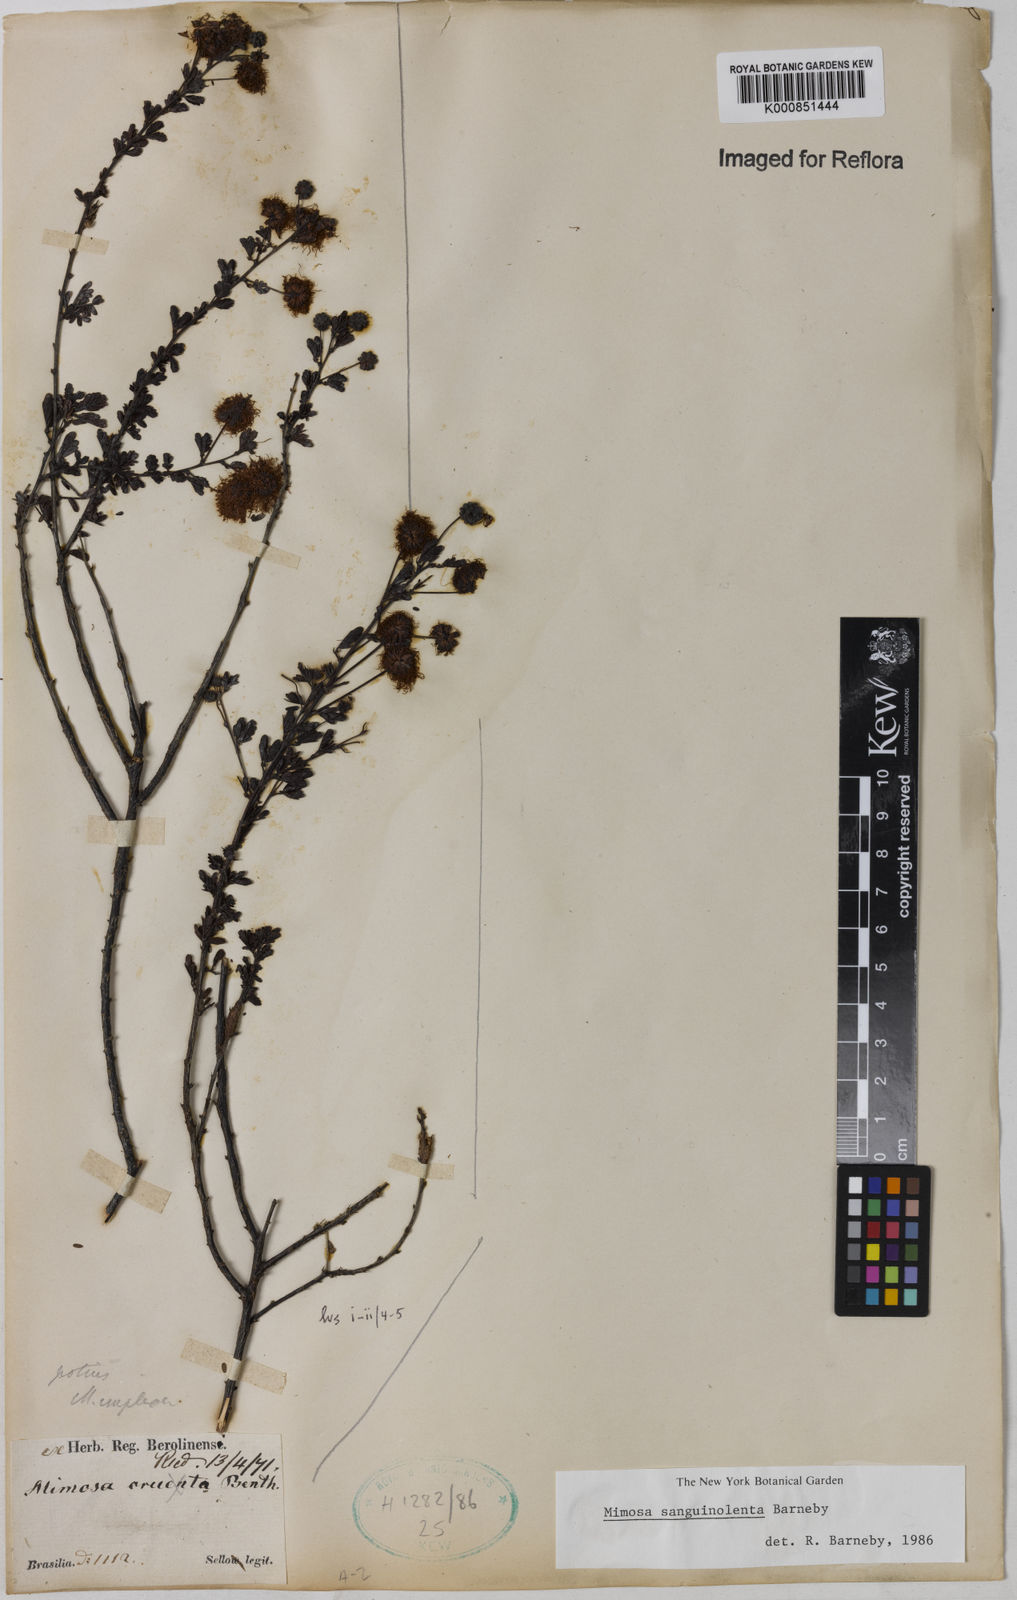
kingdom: Plantae
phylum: Tracheophyta
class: Magnoliopsida
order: Fabales
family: Fabaceae
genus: Mimosa
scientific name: Mimosa sanguinolenta
